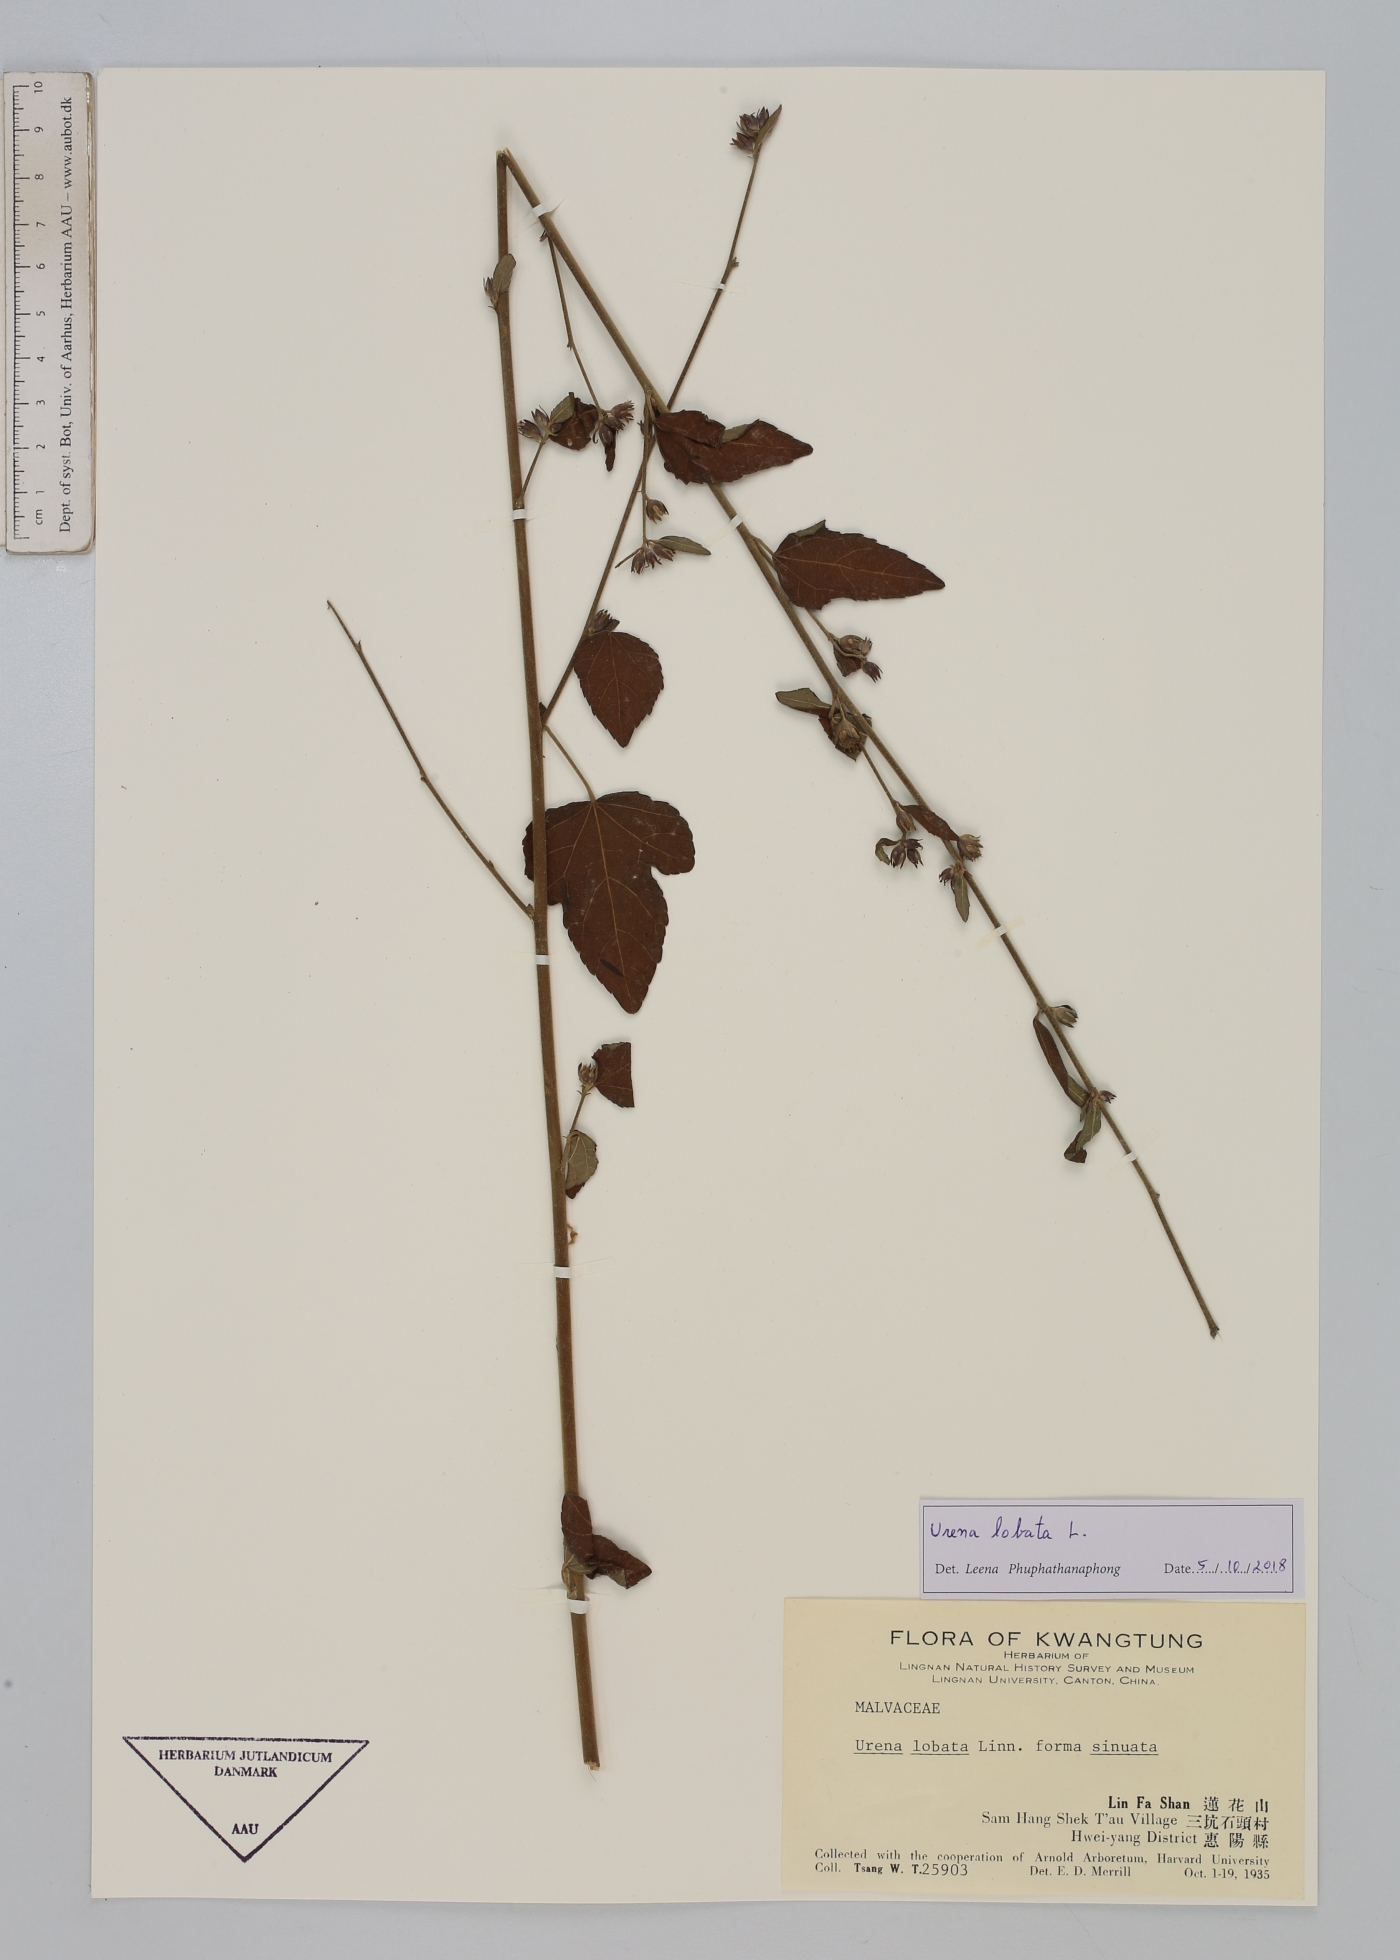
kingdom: Plantae
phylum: Tracheophyta
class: Magnoliopsida
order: Malvales
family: Malvaceae
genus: Urena
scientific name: Urena lobata
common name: Caesarweed
